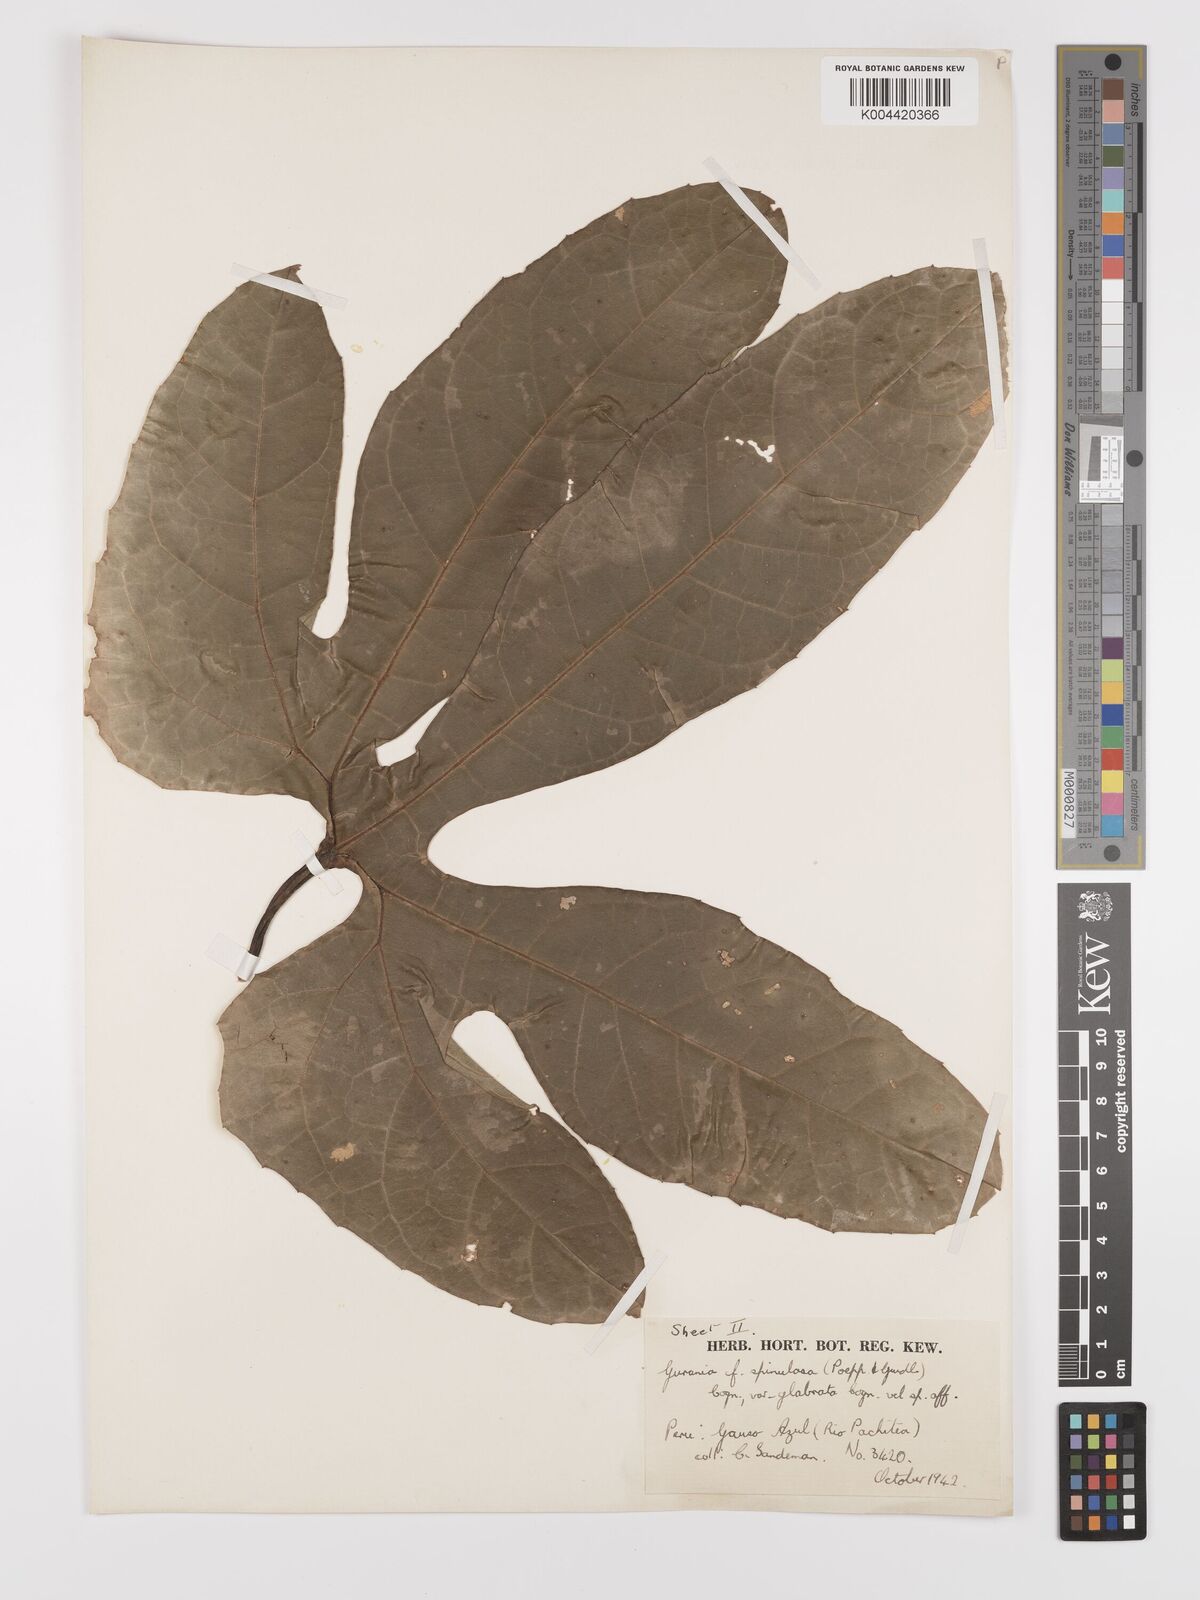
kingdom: Plantae
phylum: Tracheophyta
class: Magnoliopsida
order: Cucurbitales
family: Cucurbitaceae
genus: Cayaponia
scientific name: Cayaponia ophthalmica
